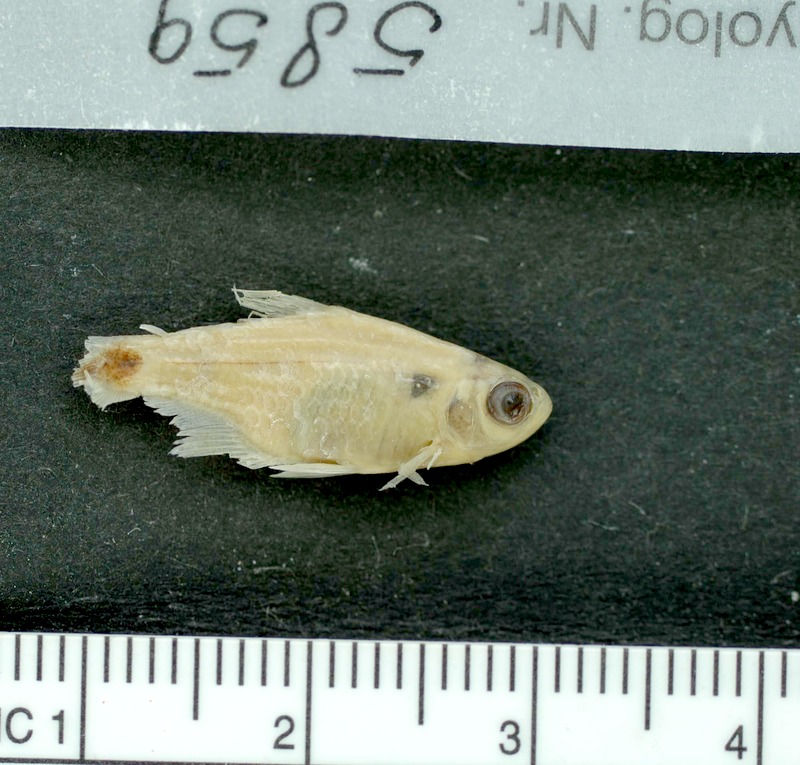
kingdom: Animalia
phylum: Chordata
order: Characiformes
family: Characidae
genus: Serrapinnus
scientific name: Serrapinnus kriegi
